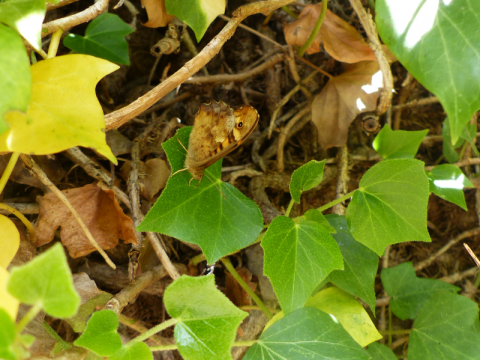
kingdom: Animalia
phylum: Arthropoda
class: Insecta
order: Lepidoptera
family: Nymphalidae
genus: Pararge
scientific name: Pararge aegeria
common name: Speckled Wood Butterfly
